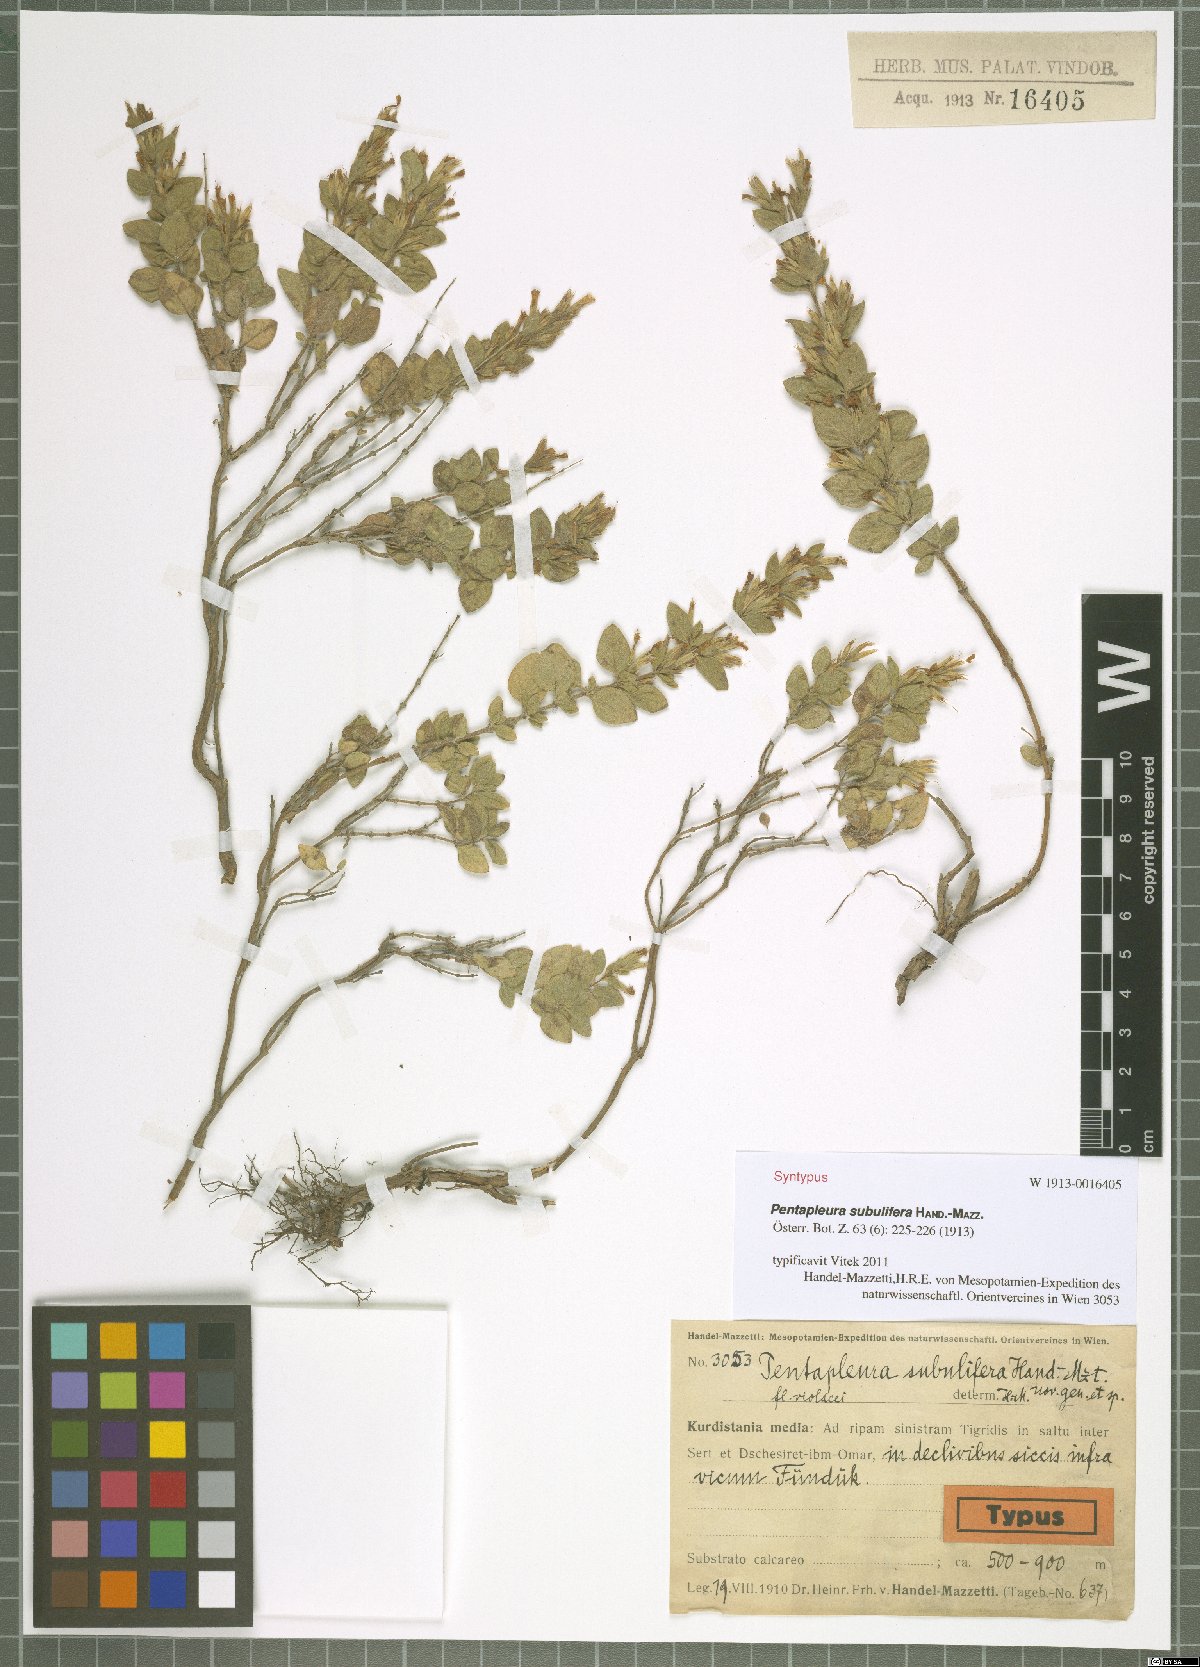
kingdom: Plantae
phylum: Tracheophyta
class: Magnoliopsida
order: Lamiales
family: Lamiaceae
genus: Pentapleura
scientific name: Pentapleura subulifera
